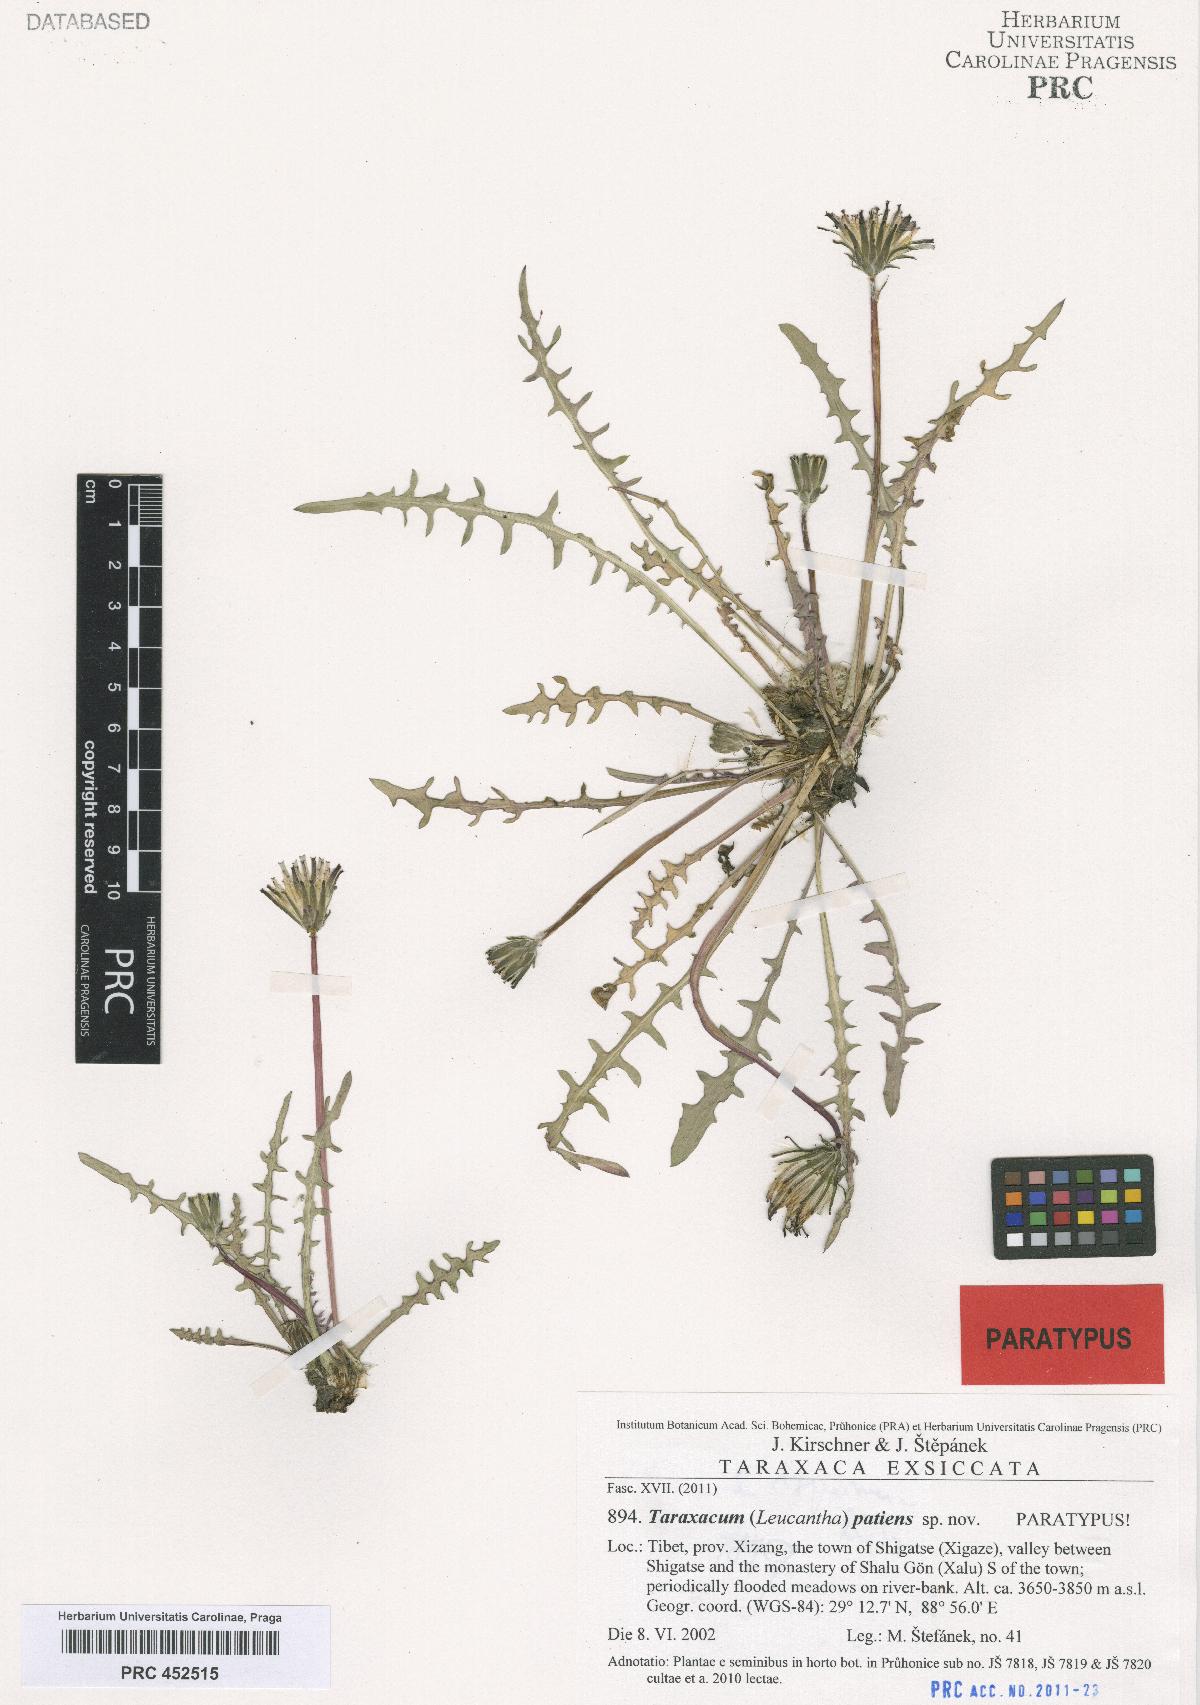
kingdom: Plantae
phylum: Tracheophyta
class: Magnoliopsida
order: Asterales
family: Asteraceae
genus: Taraxacum
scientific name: Taraxacum patiens
